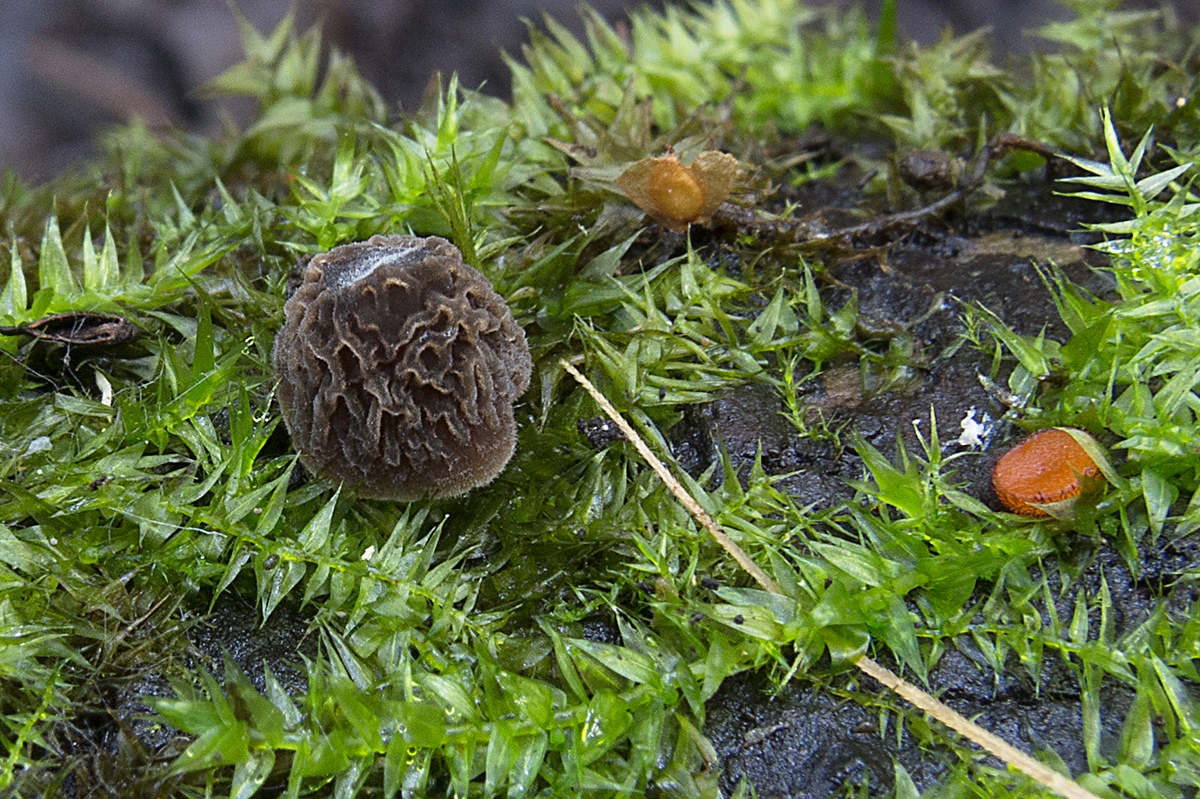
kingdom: Fungi
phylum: Basidiomycota
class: Agaricomycetes
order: Agaricales
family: Pluteaceae
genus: Pluteus
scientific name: Pluteus
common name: gråstokket skærmhat
